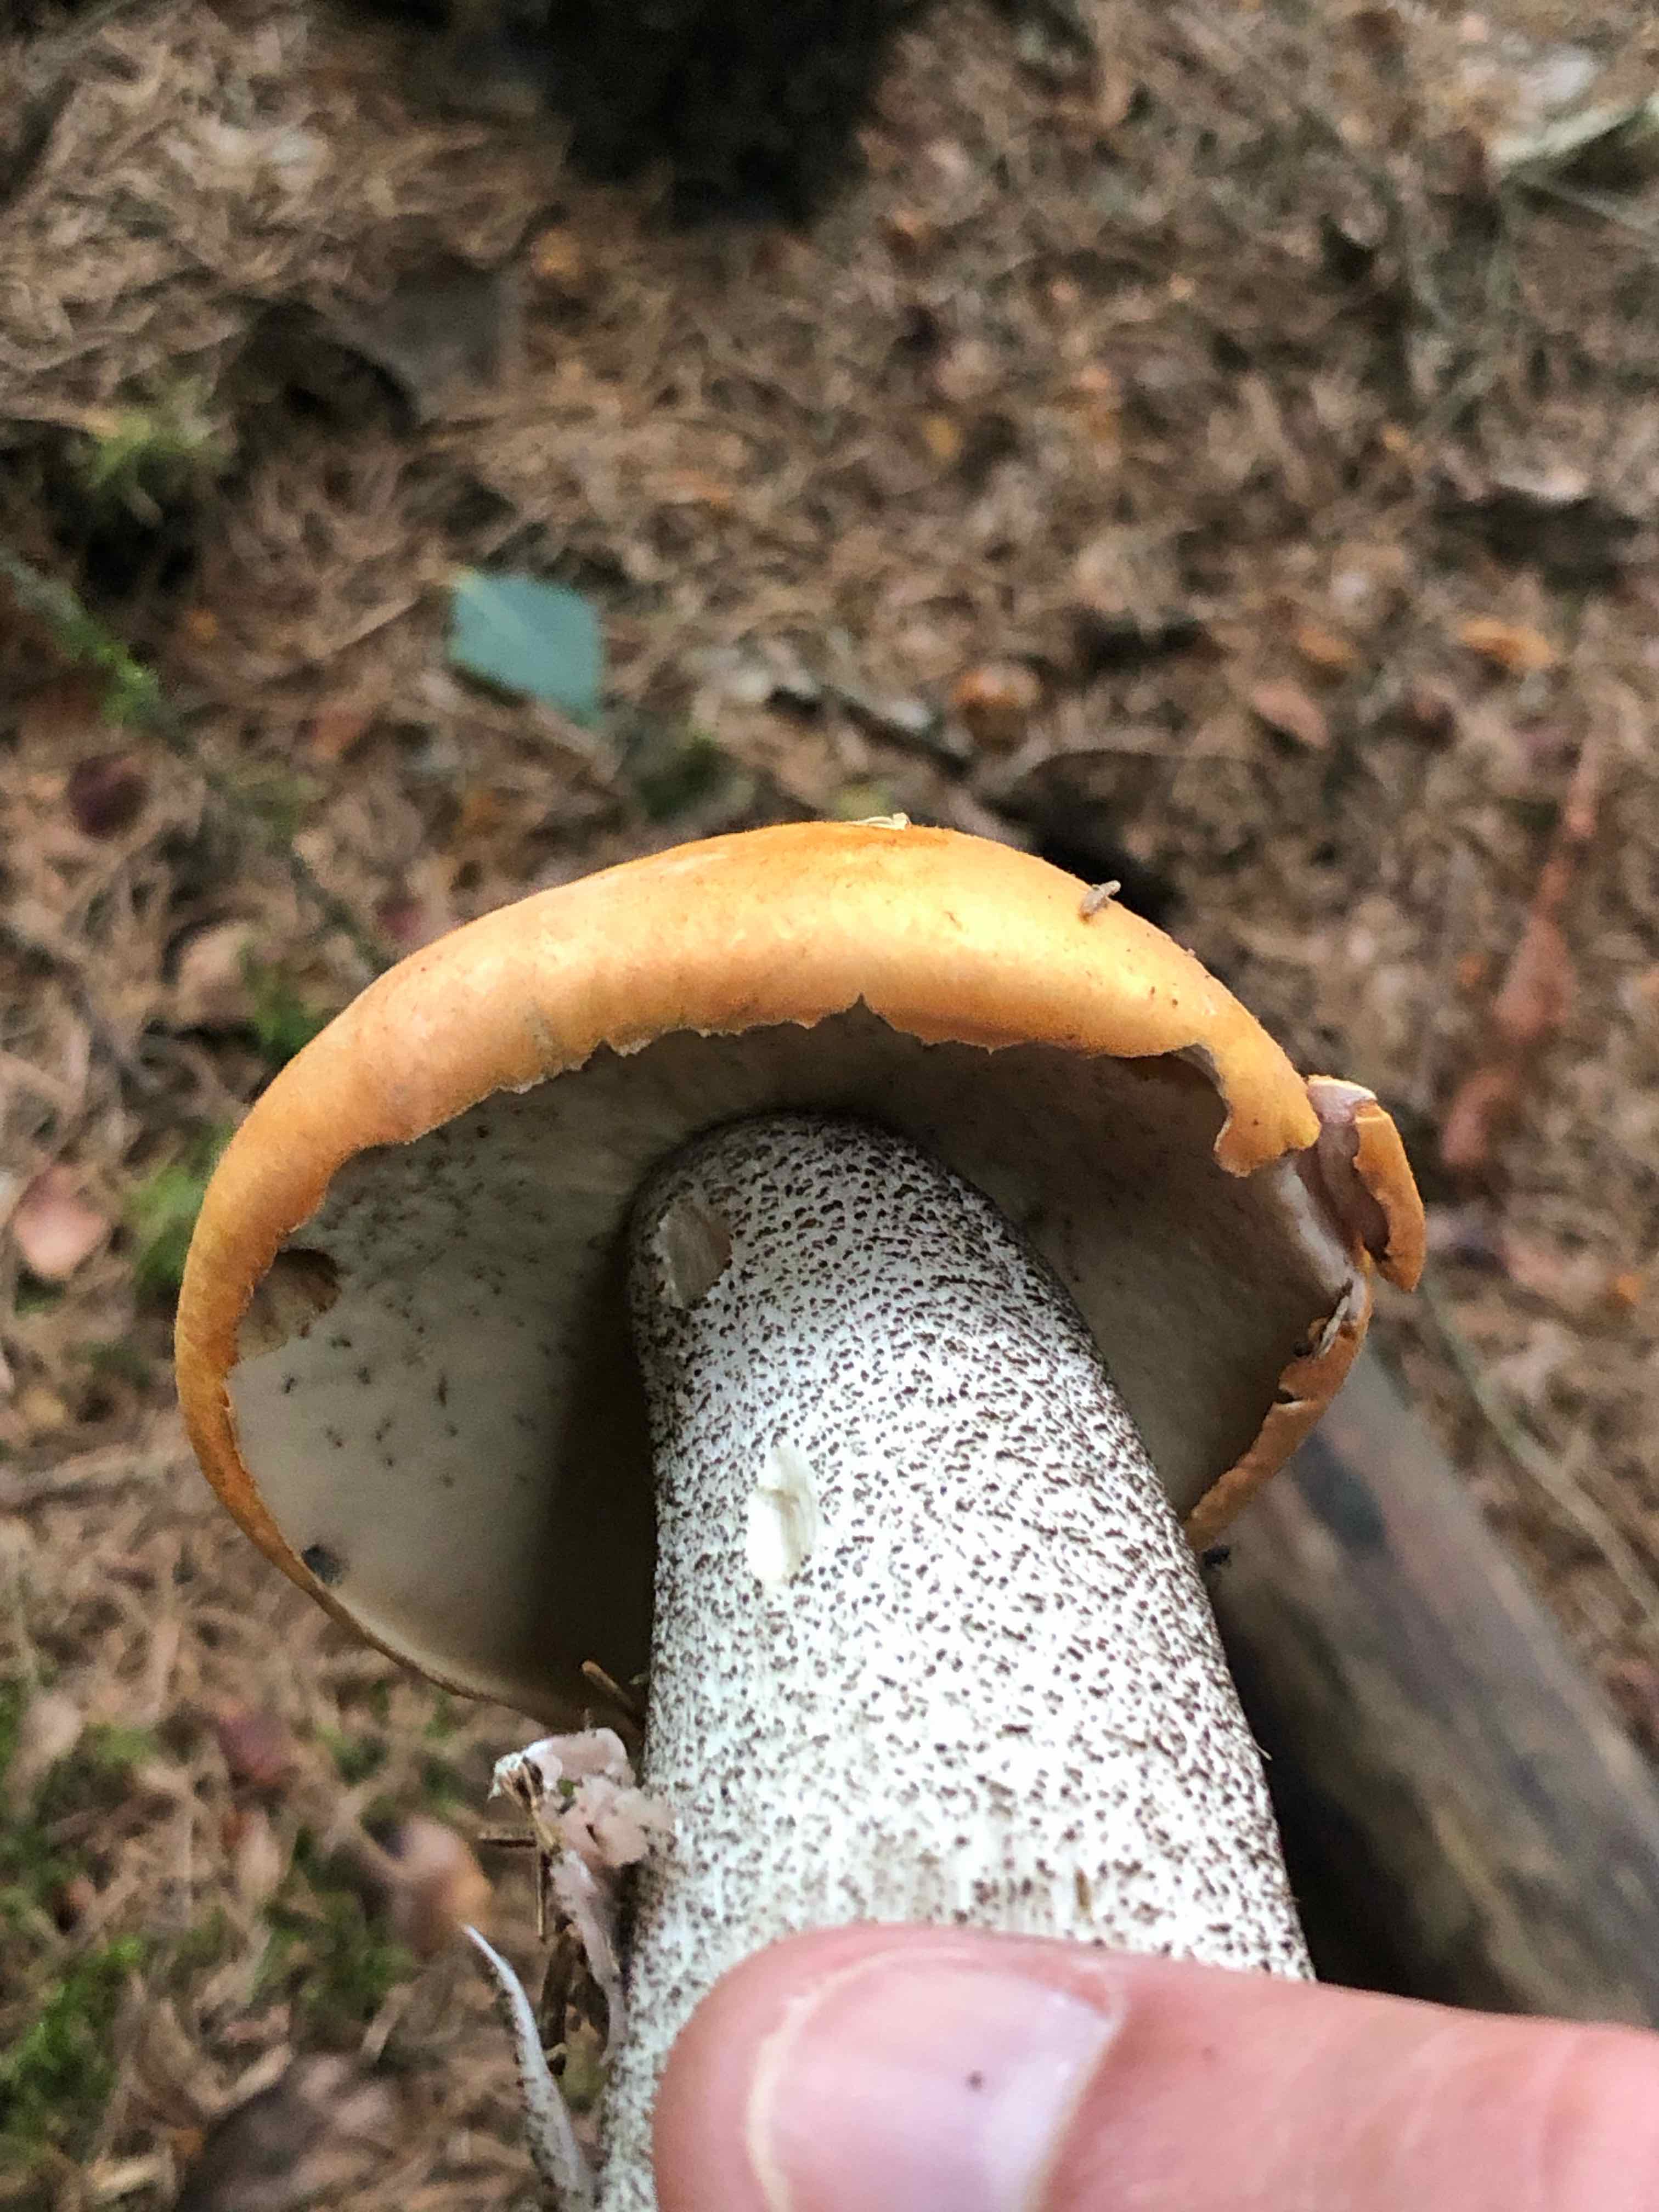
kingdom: Fungi
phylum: Basidiomycota
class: Agaricomycetes
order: Boletales
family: Boletaceae
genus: Leccinum
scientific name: Leccinum versipelle
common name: orange skælrørhat
